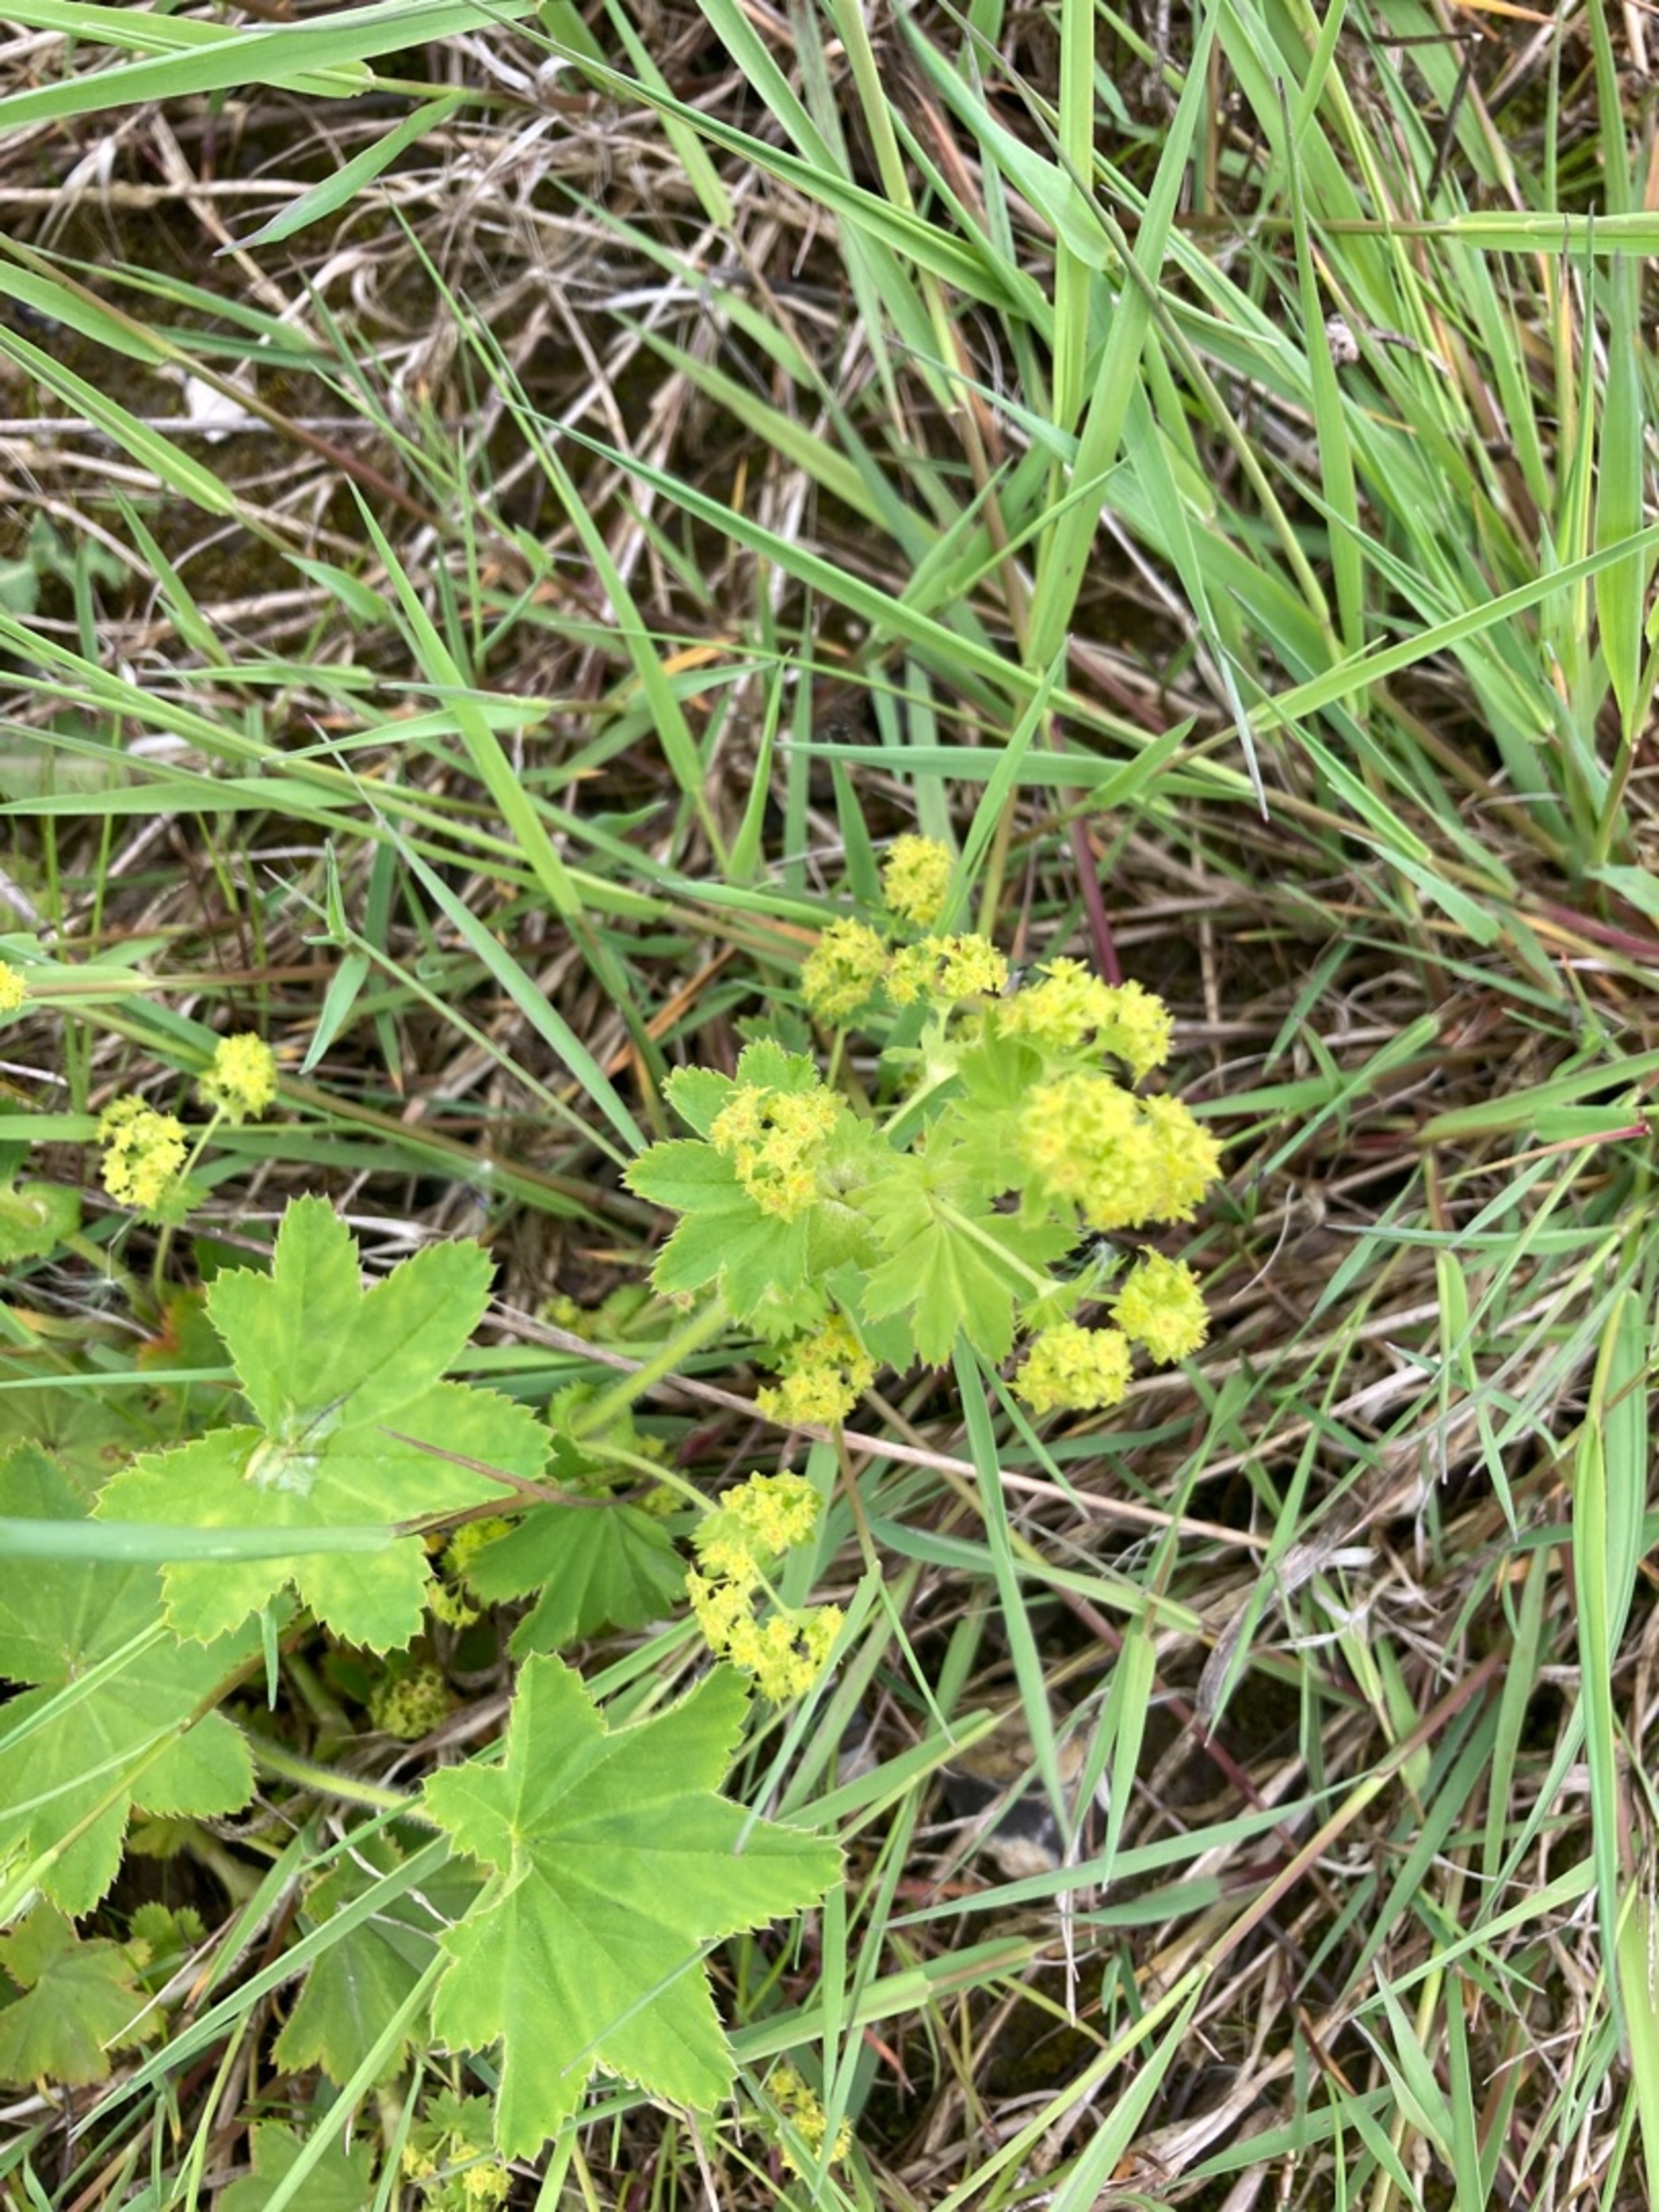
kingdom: Plantae
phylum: Tracheophyta
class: Magnoliopsida
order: Rosales
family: Rosaceae
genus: Alchemilla
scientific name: Alchemilla xanthochlora
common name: Gulgrøn løvefod
